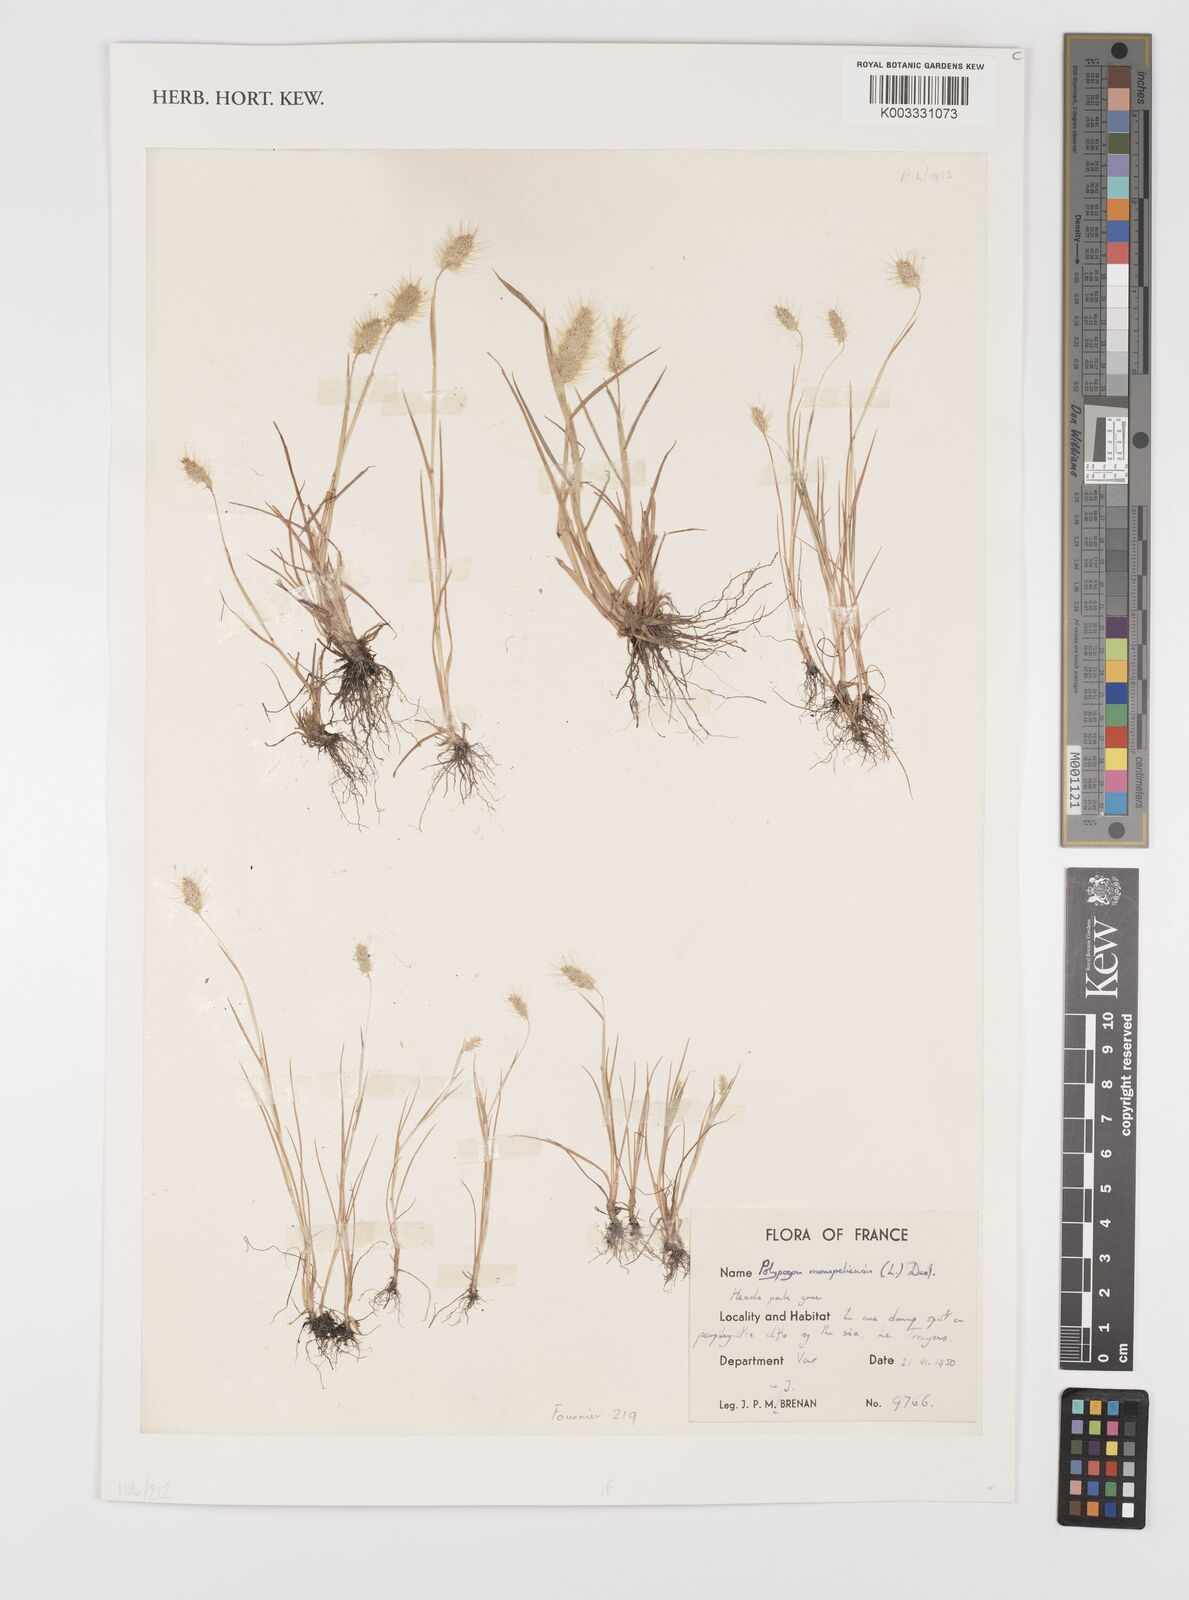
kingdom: Plantae
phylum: Tracheophyta
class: Liliopsida
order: Poales
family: Poaceae
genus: Polypogon
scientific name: Polypogon monspeliensis
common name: Annual rabbitsfoot grass
